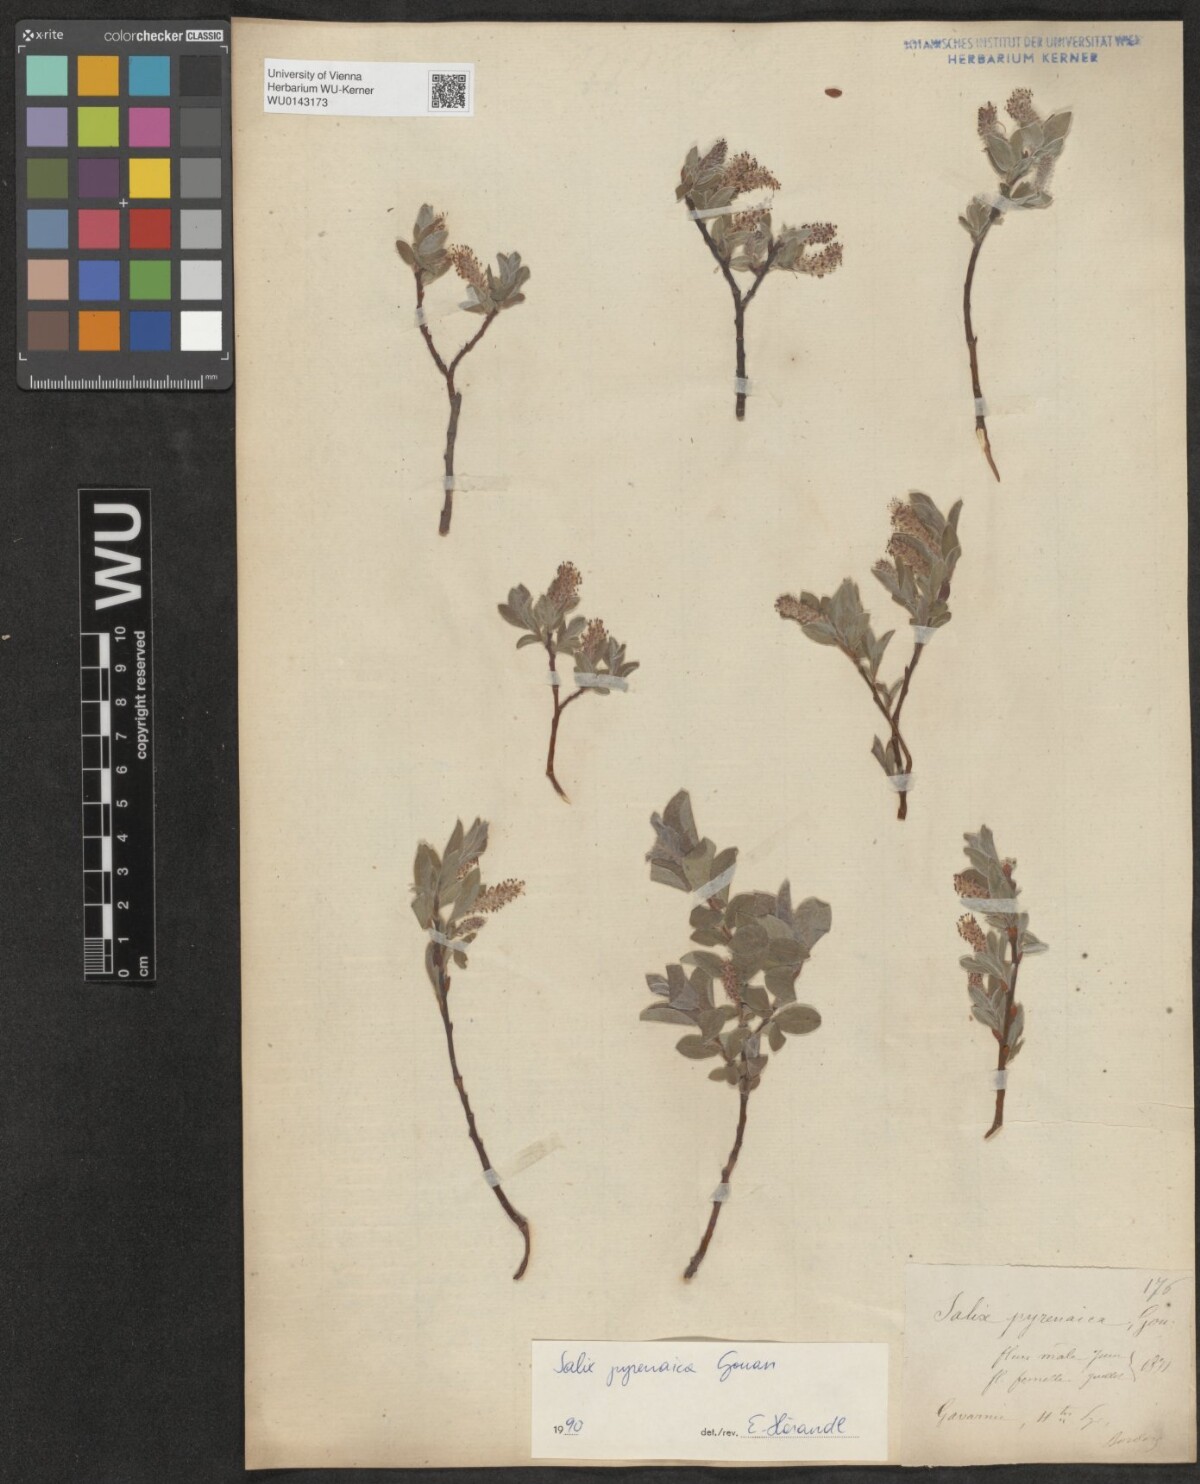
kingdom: Plantae
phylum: Tracheophyta
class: Magnoliopsida
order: Malpighiales
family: Salicaceae
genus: Salix
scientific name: Salix pyrenaica
